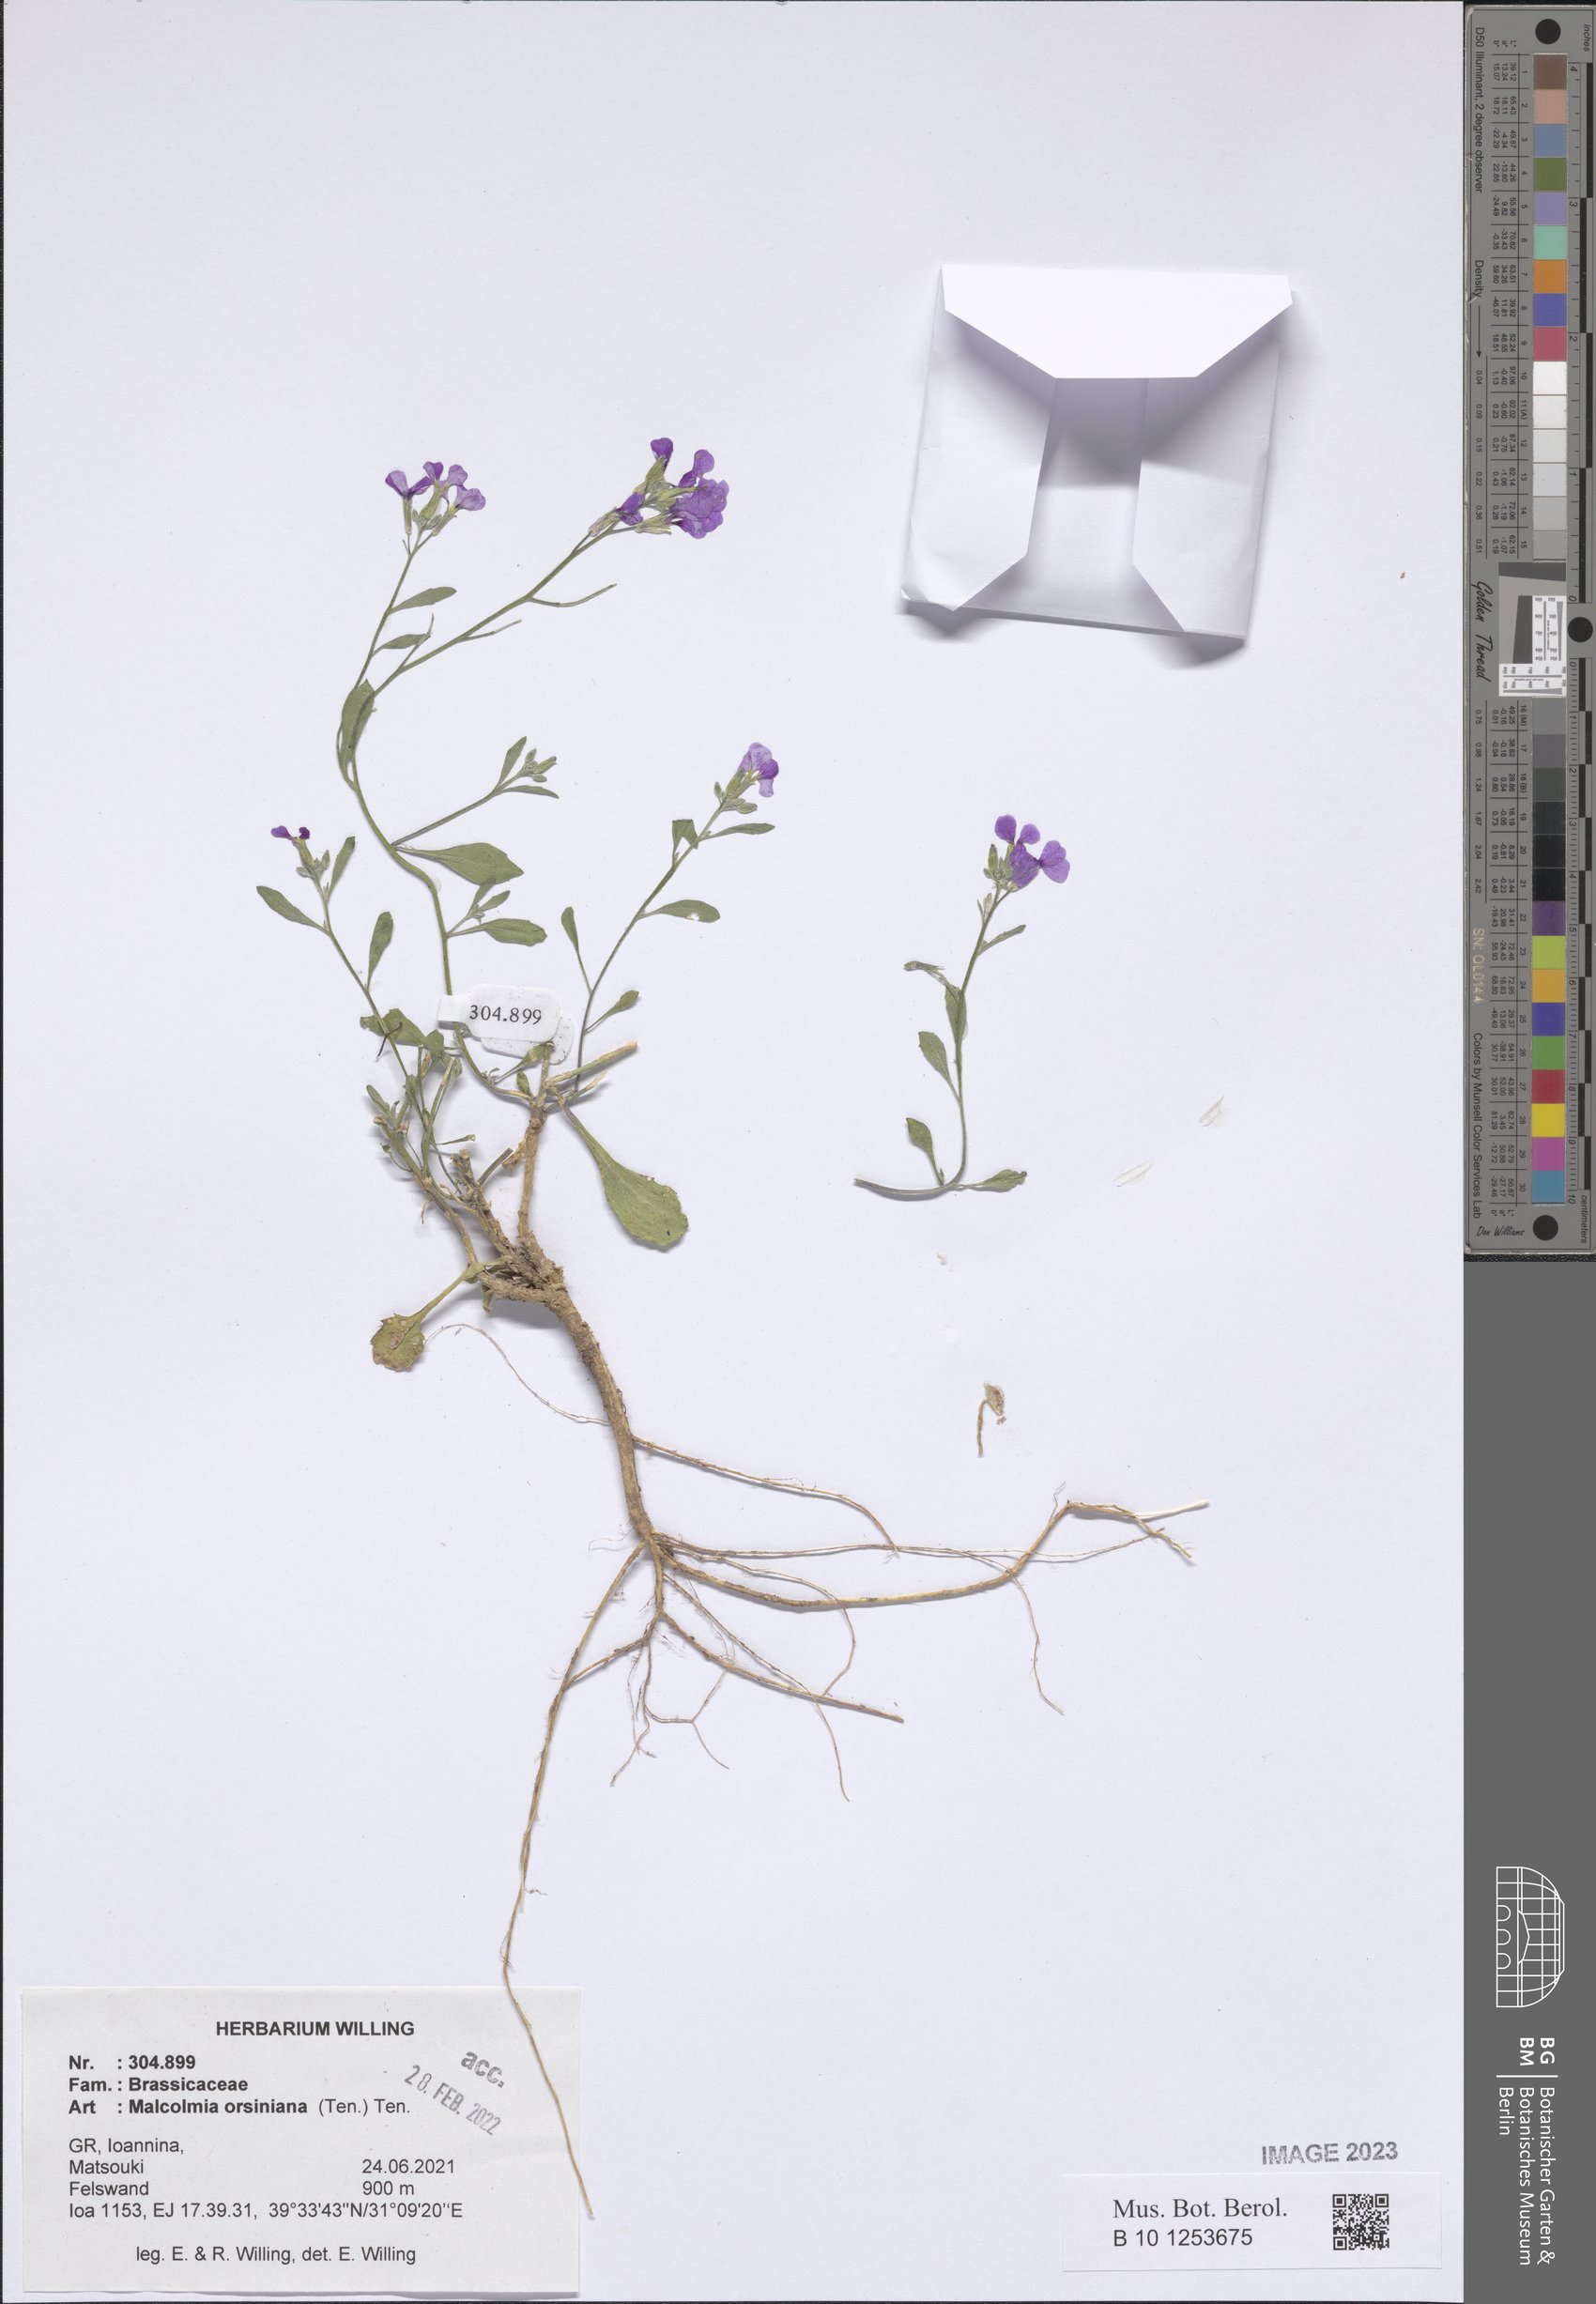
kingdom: Plantae
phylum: Tracheophyta
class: Magnoliopsida
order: Brassicales
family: Brassicaceae
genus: Malcolmia
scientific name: Malcolmia orsiniana
